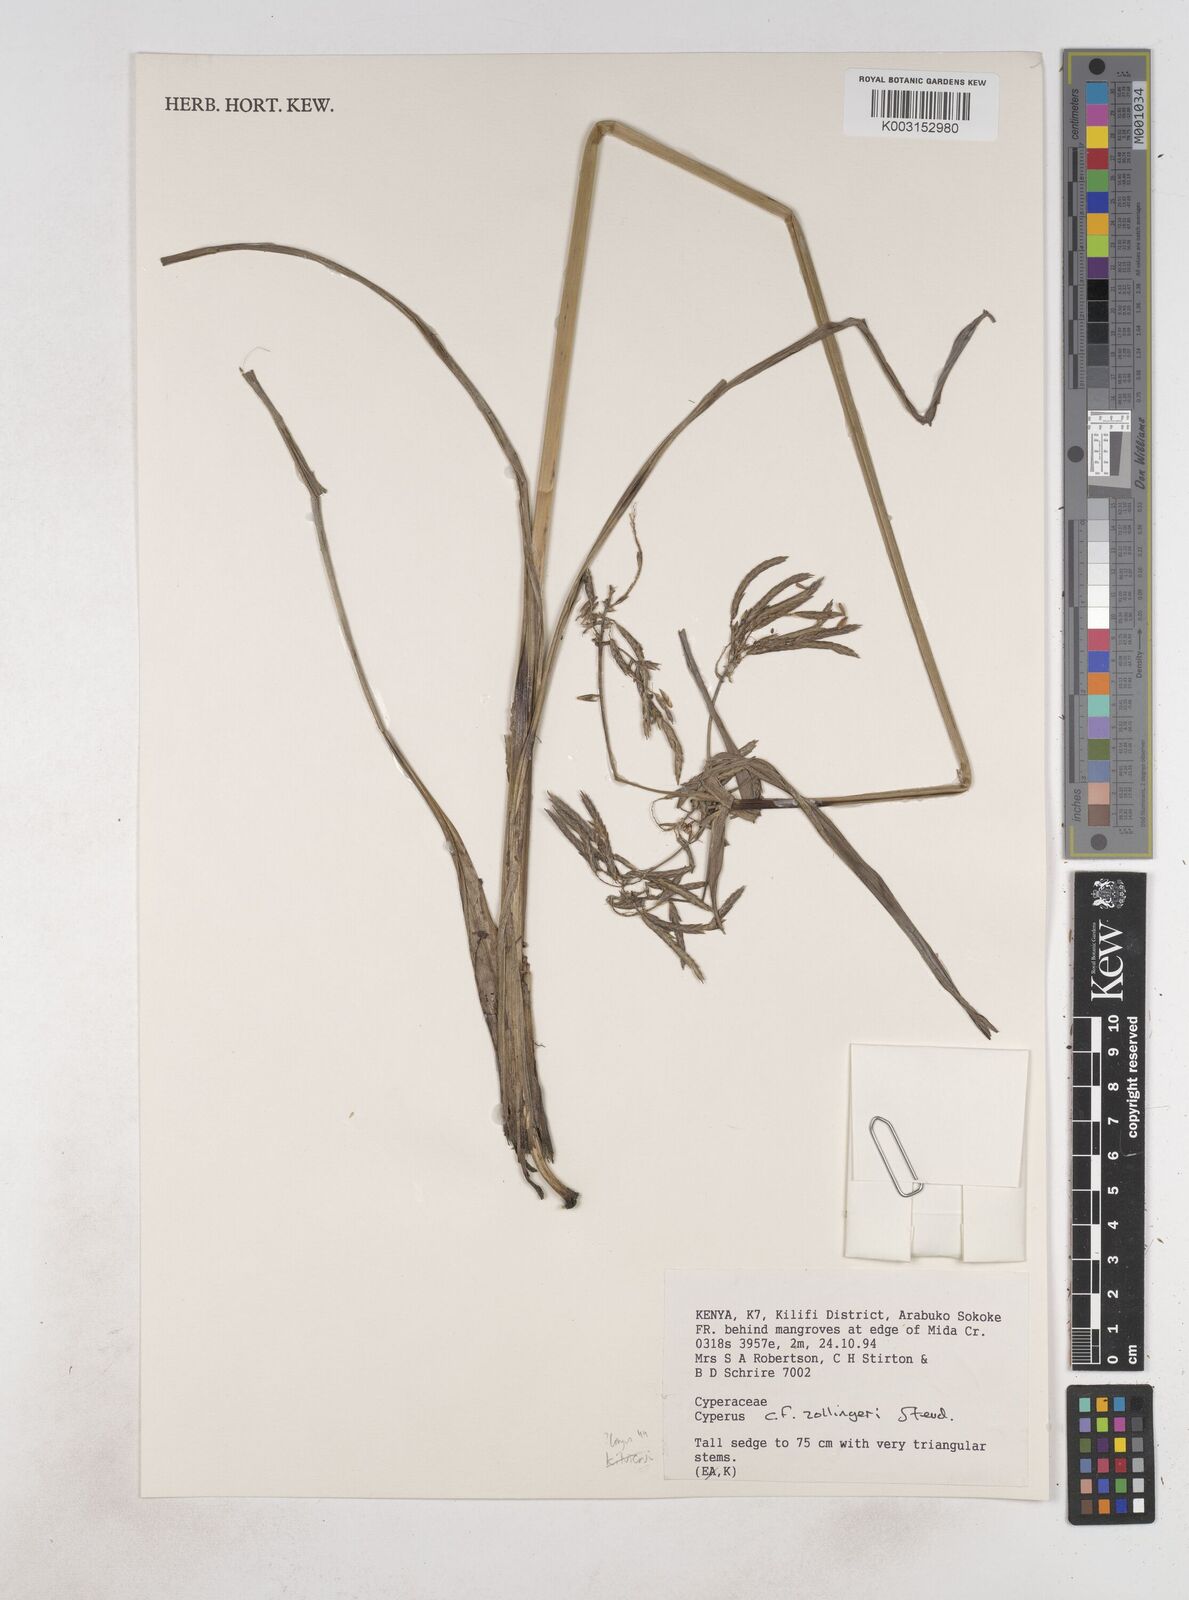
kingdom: Plantae
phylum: Tracheophyta
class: Liliopsida
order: Poales
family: Cyperaceae
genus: Cyperus
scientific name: Cyperus zollingeri
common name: Roadside flatsedge
